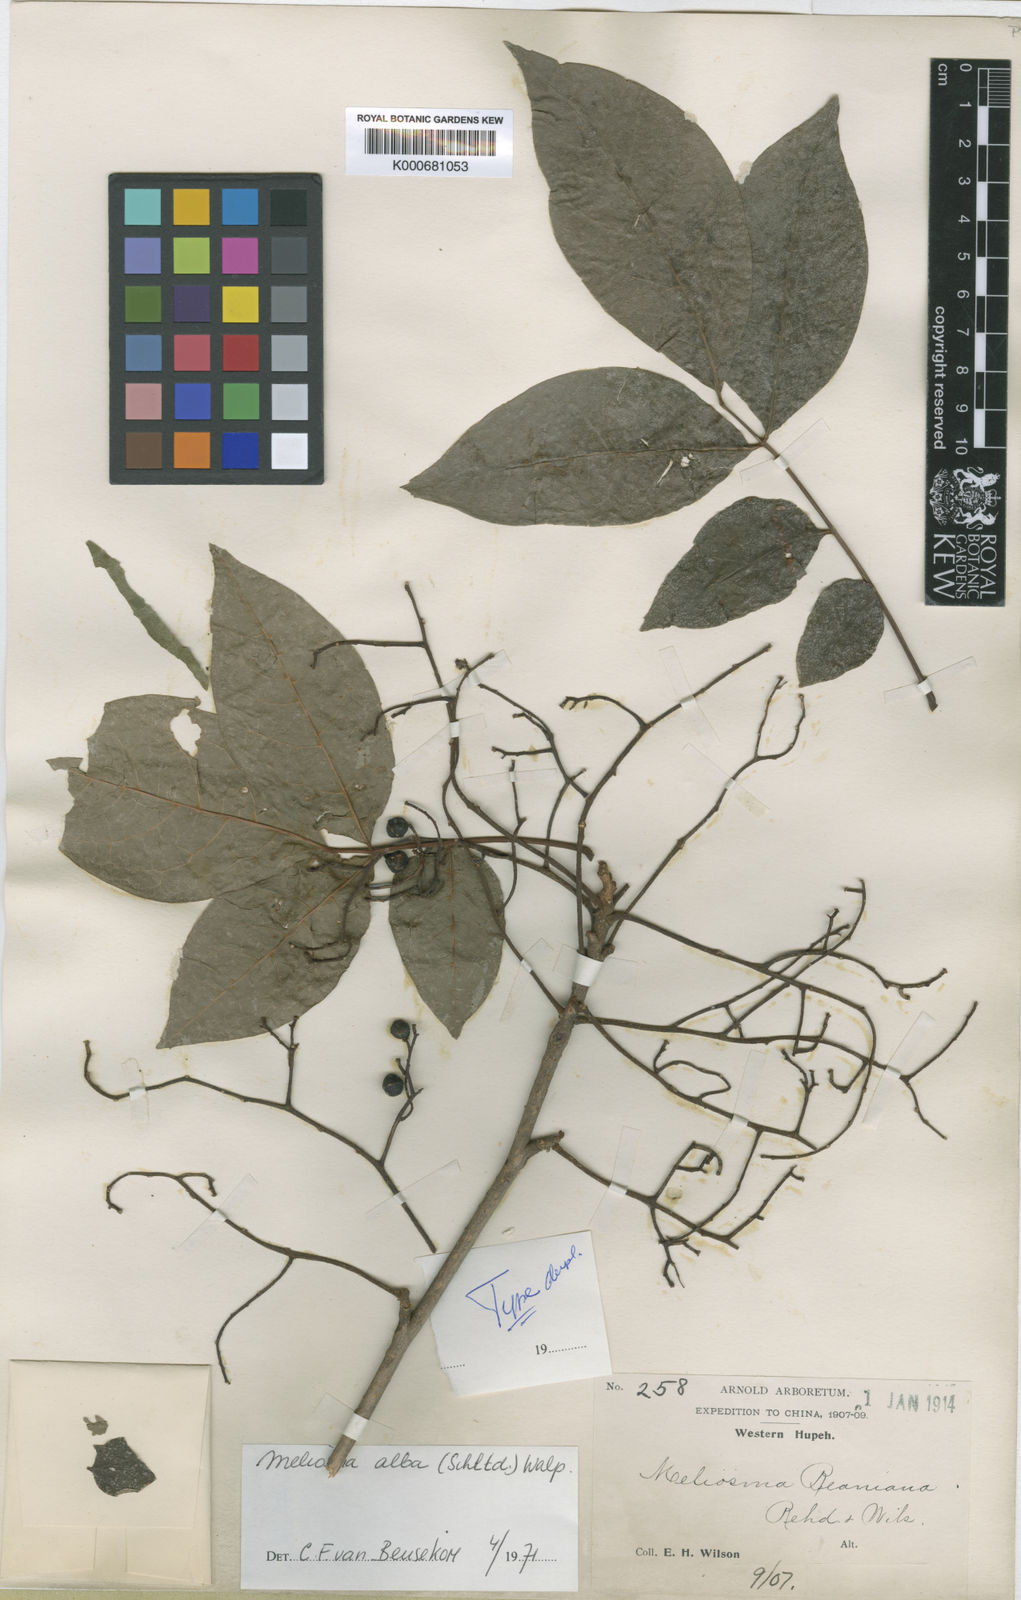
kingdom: Plantae
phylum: Tracheophyta
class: Magnoliopsida
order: Proteales
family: Sabiaceae
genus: Meliosma
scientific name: Meliosma alba
